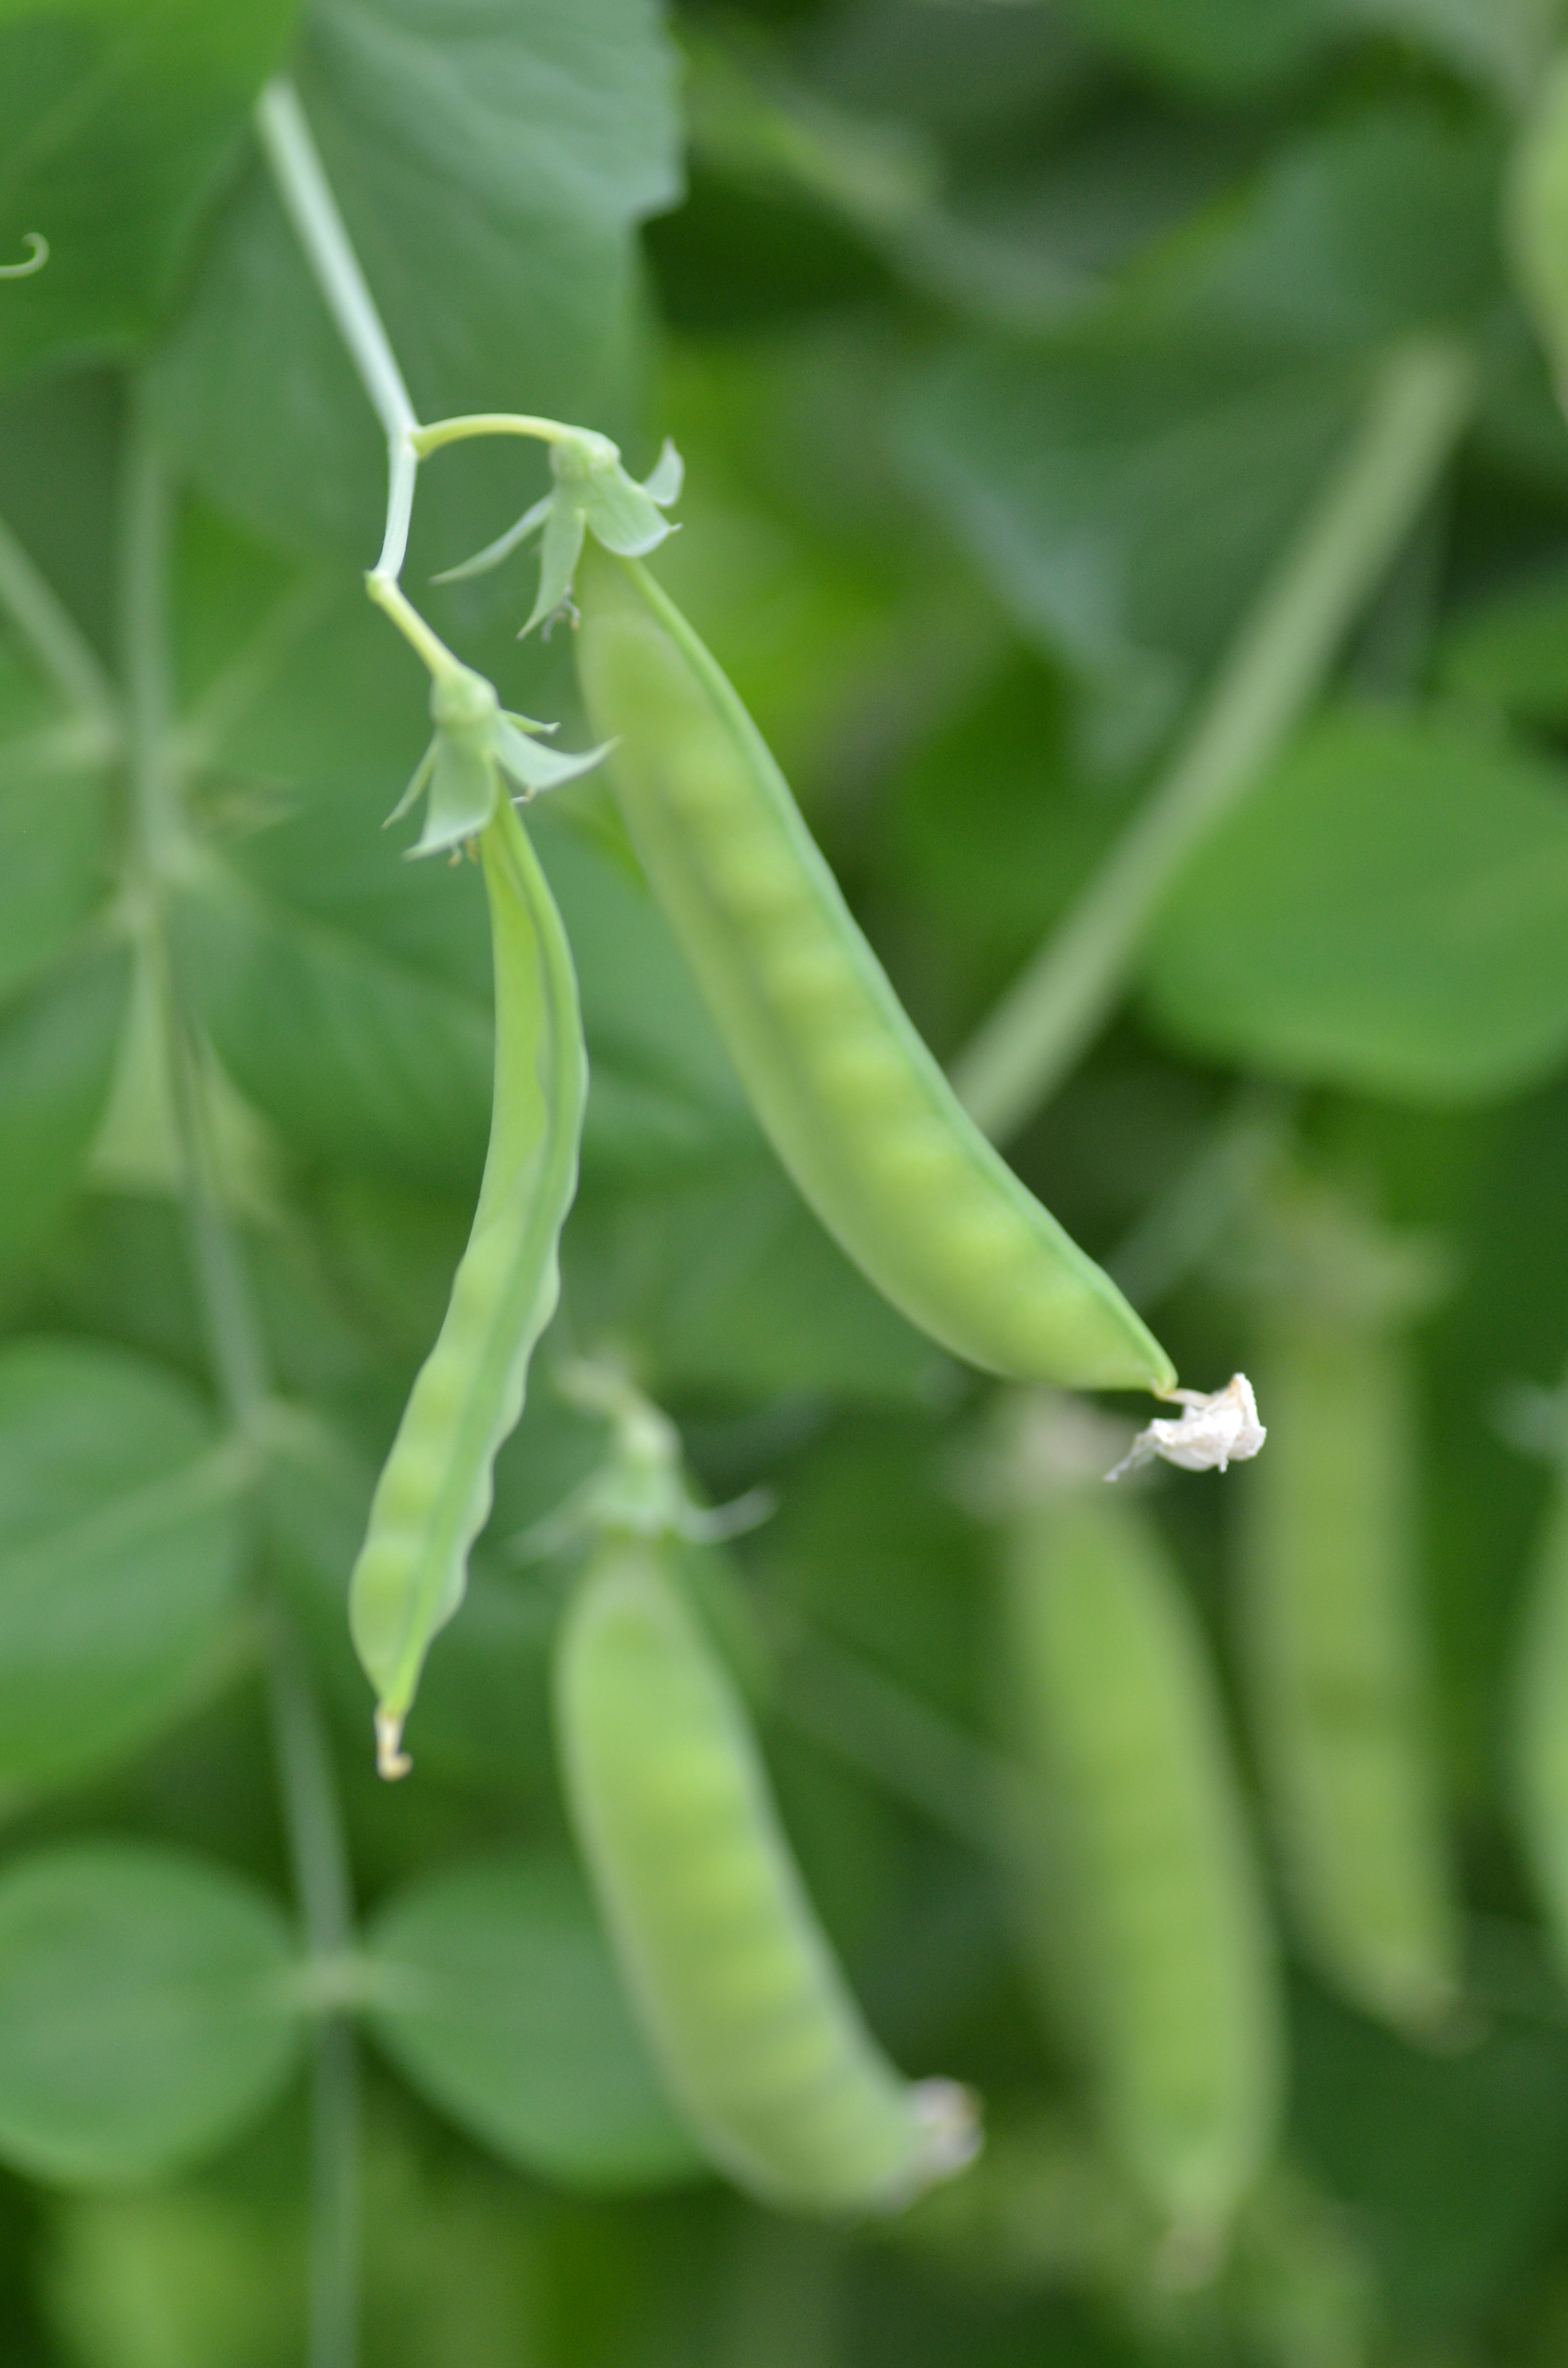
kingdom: Plantae
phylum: Tracheophyta
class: Magnoliopsida
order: Fabales
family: Fabaceae
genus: Lathyrus
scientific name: Lathyrus oleraceus
